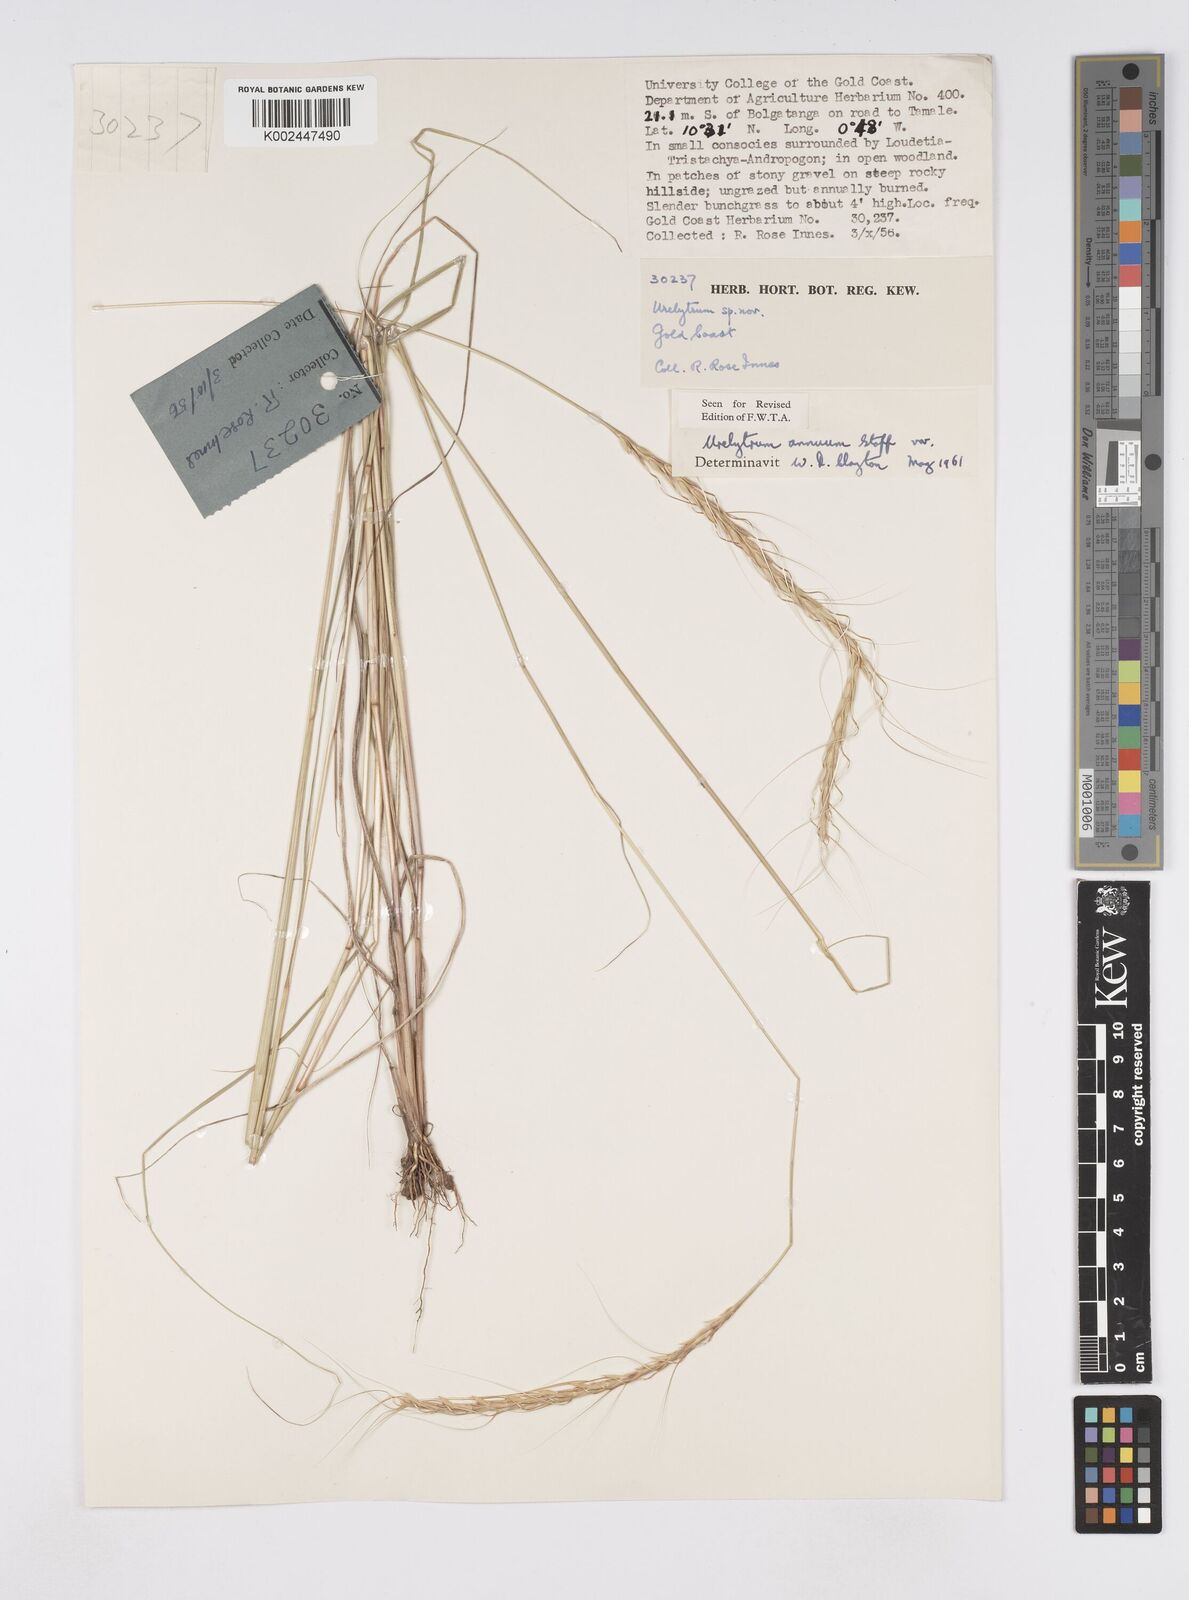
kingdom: Plantae
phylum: Tracheophyta
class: Liliopsida
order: Poales
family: Poaceae
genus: Urelytrum
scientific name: Urelytrum annuum
